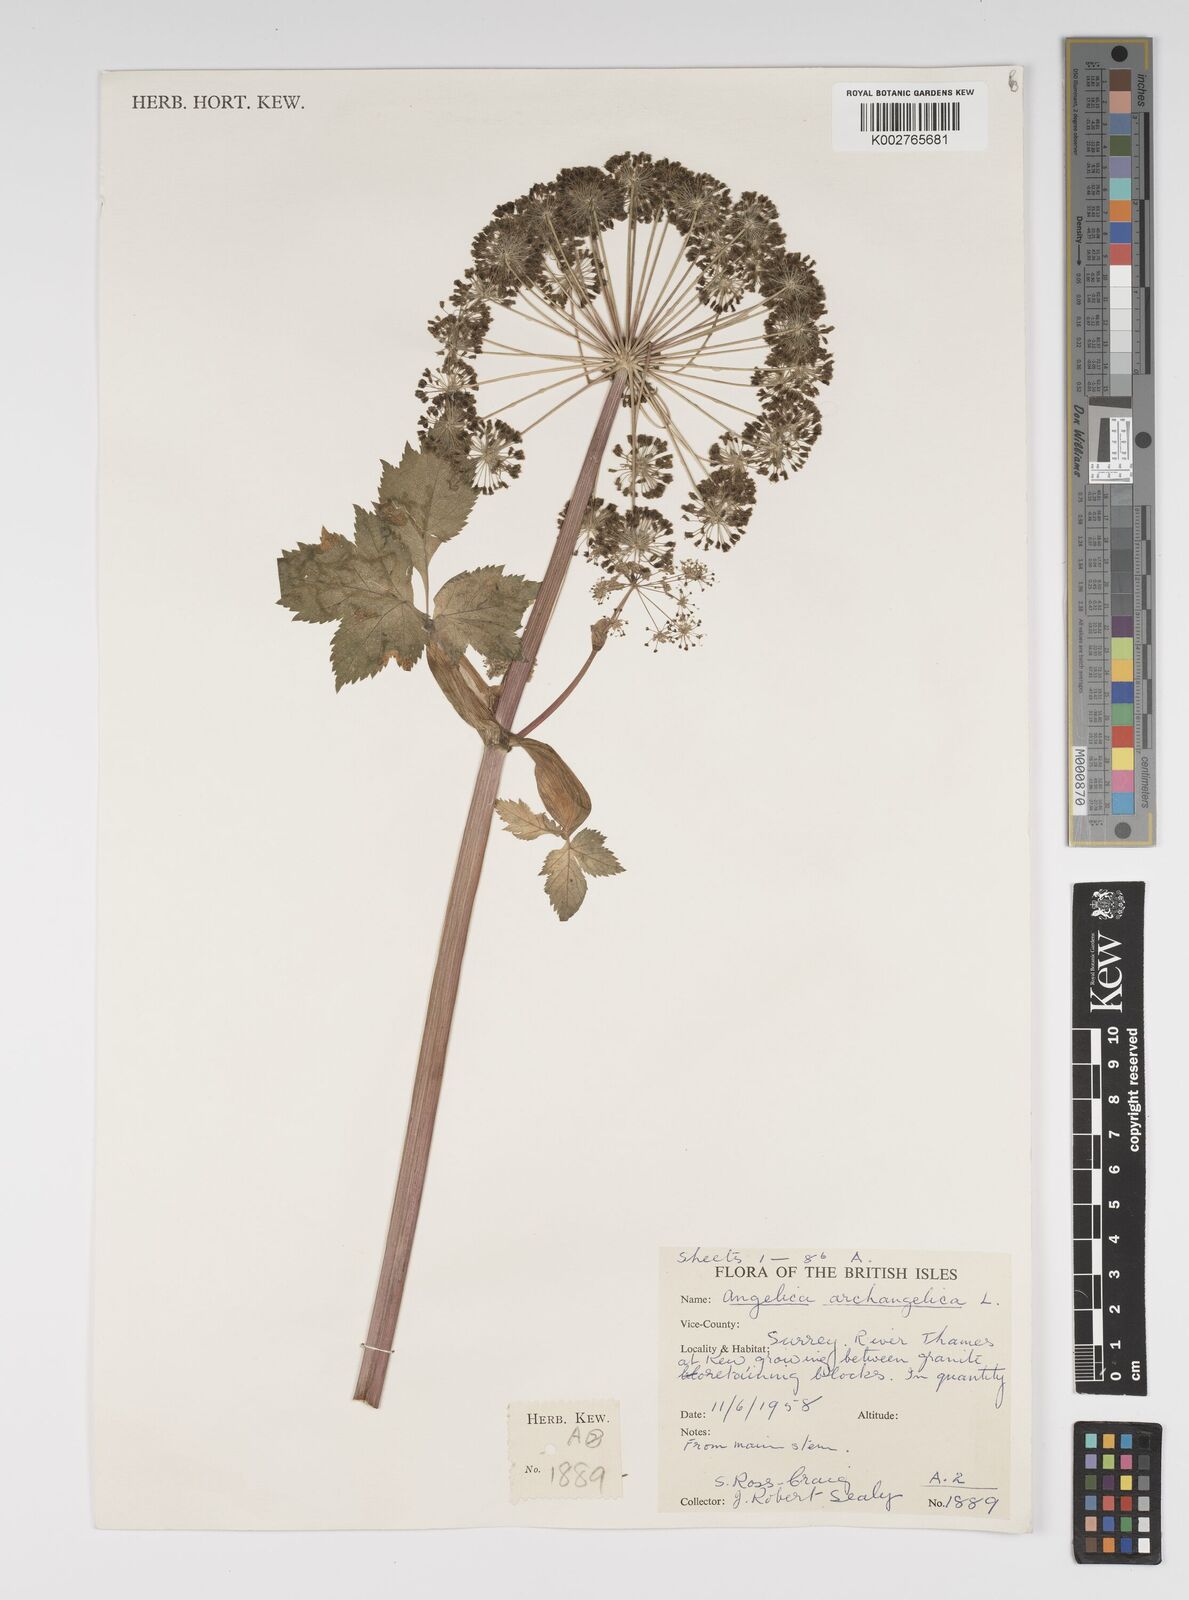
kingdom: Plantae
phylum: Tracheophyta
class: Magnoliopsida
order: Apiales
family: Apiaceae
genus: Angelica
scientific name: Angelica archangelica
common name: Garden angelica
